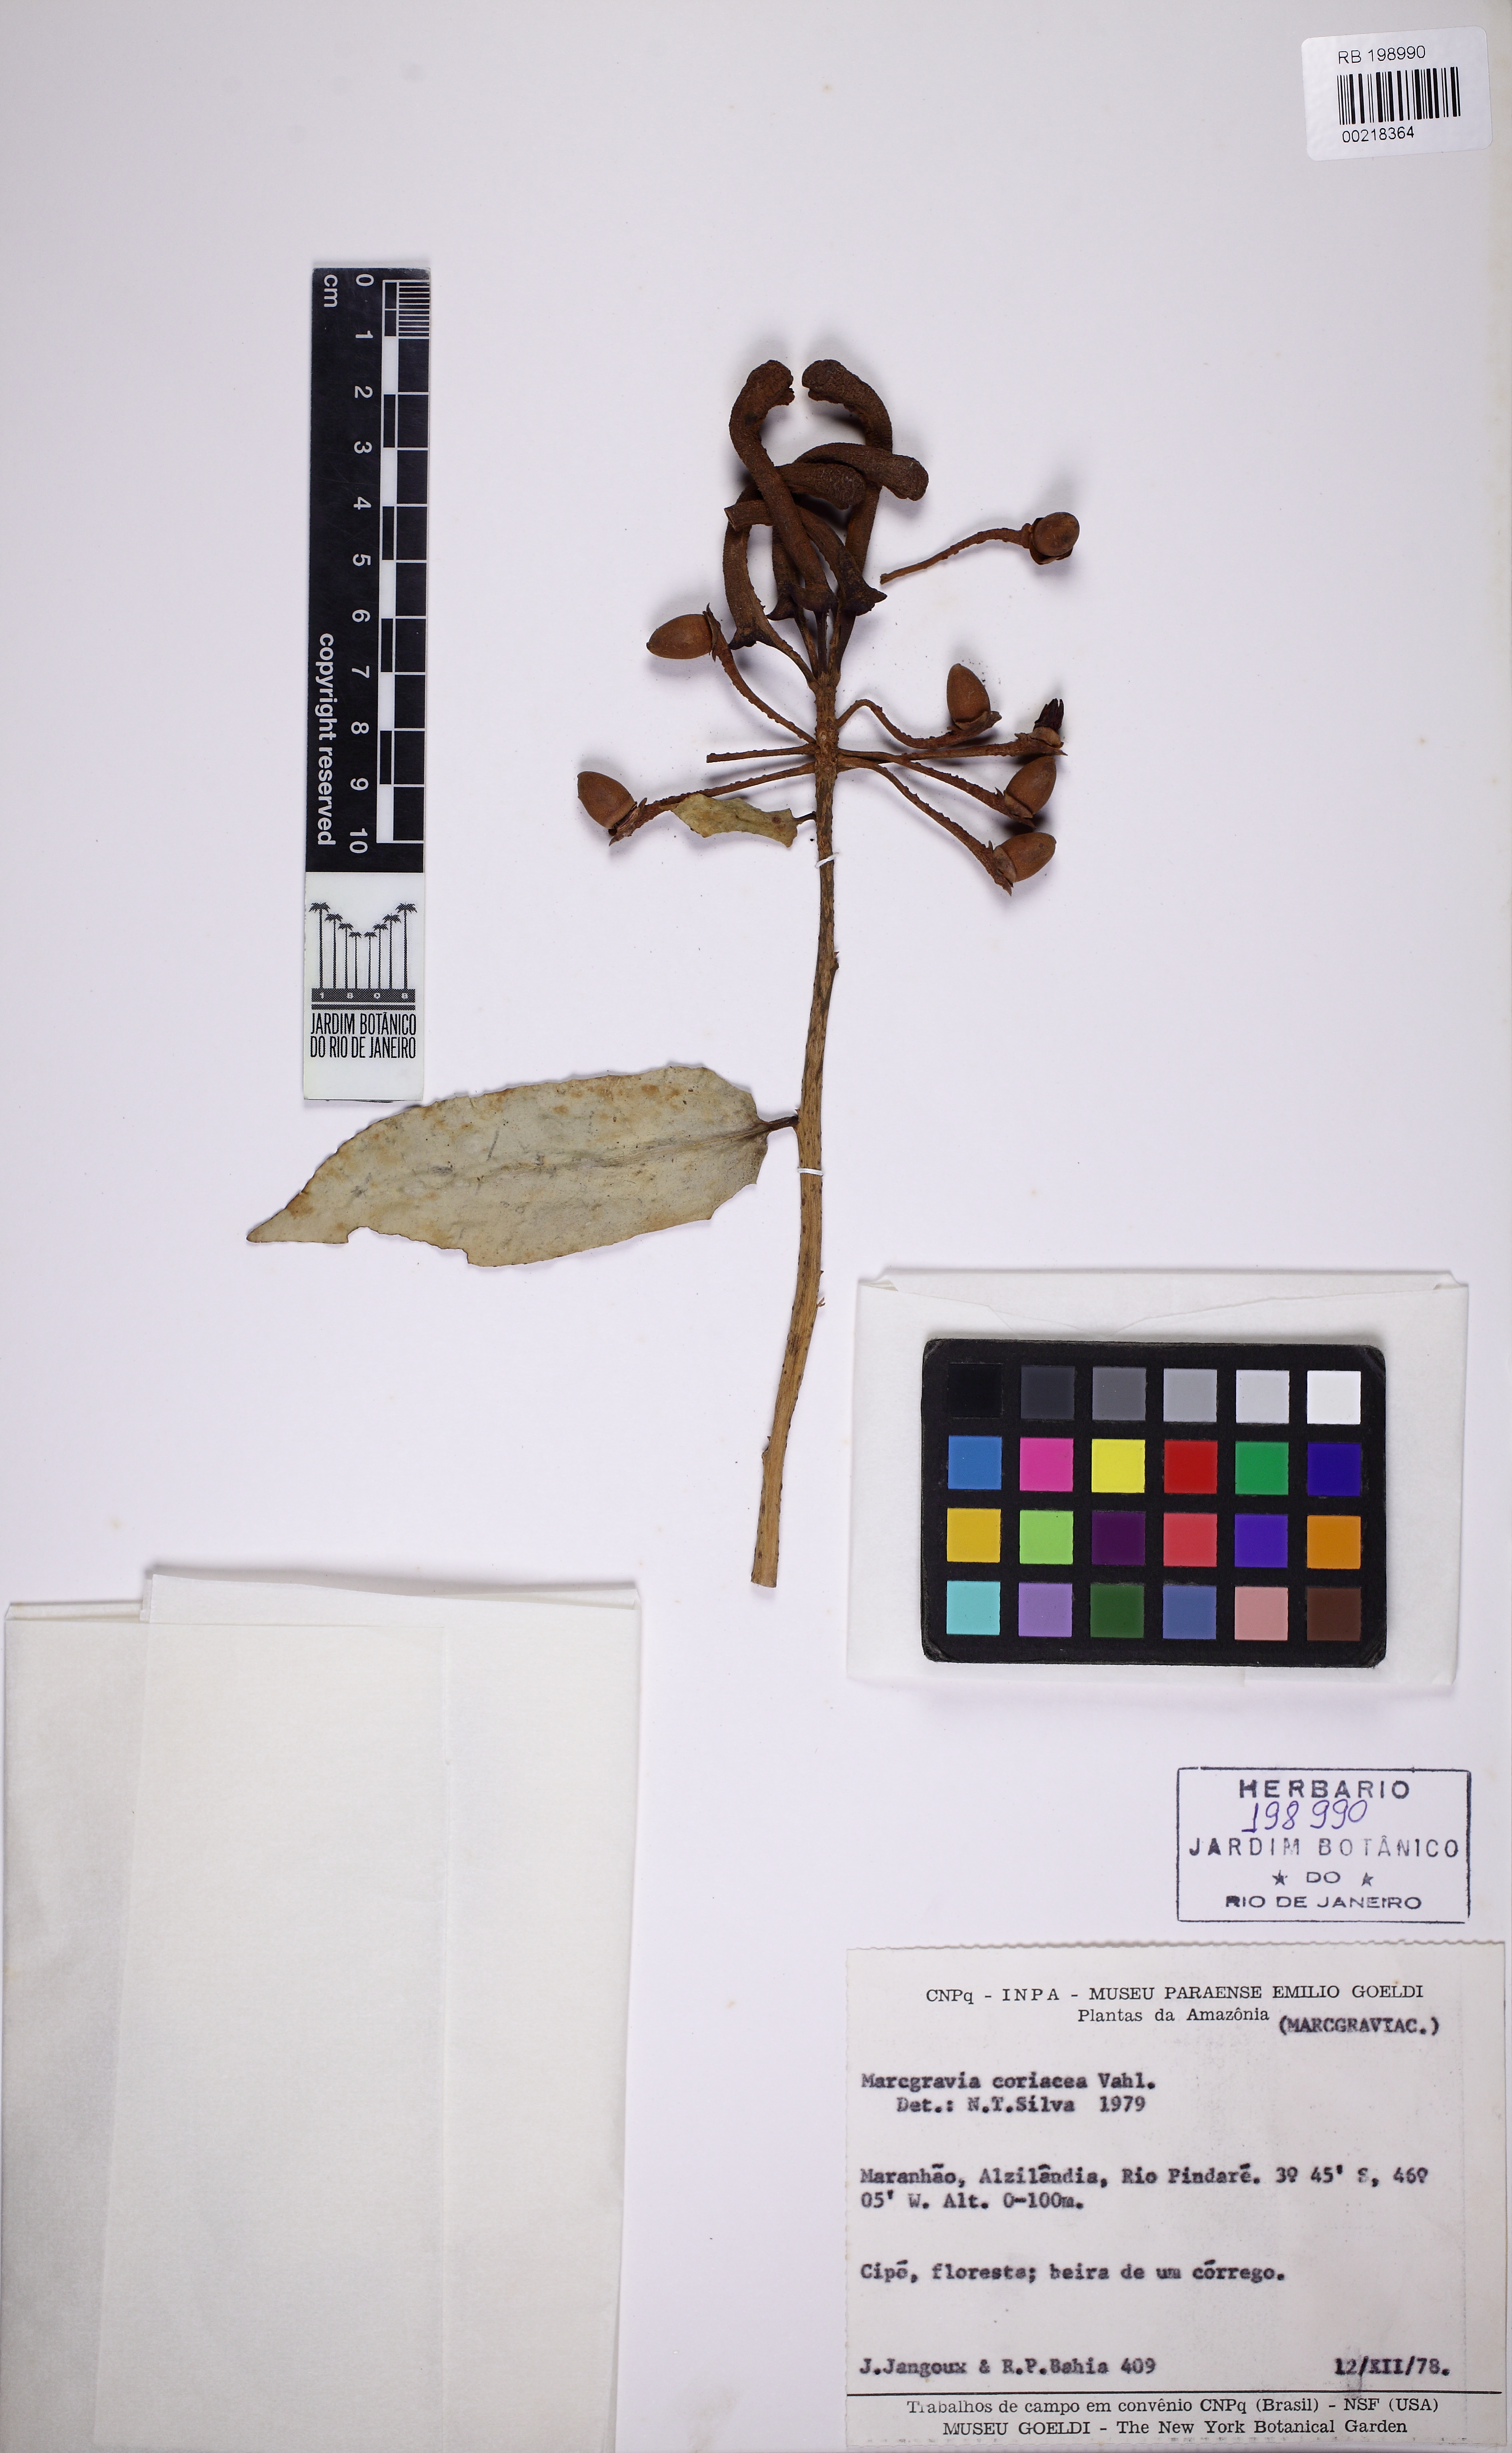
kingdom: Plantae
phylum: Tracheophyta
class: Magnoliopsida
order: Ericales
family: Marcgraviaceae
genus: Marcgravia
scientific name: Marcgravia coriacea
